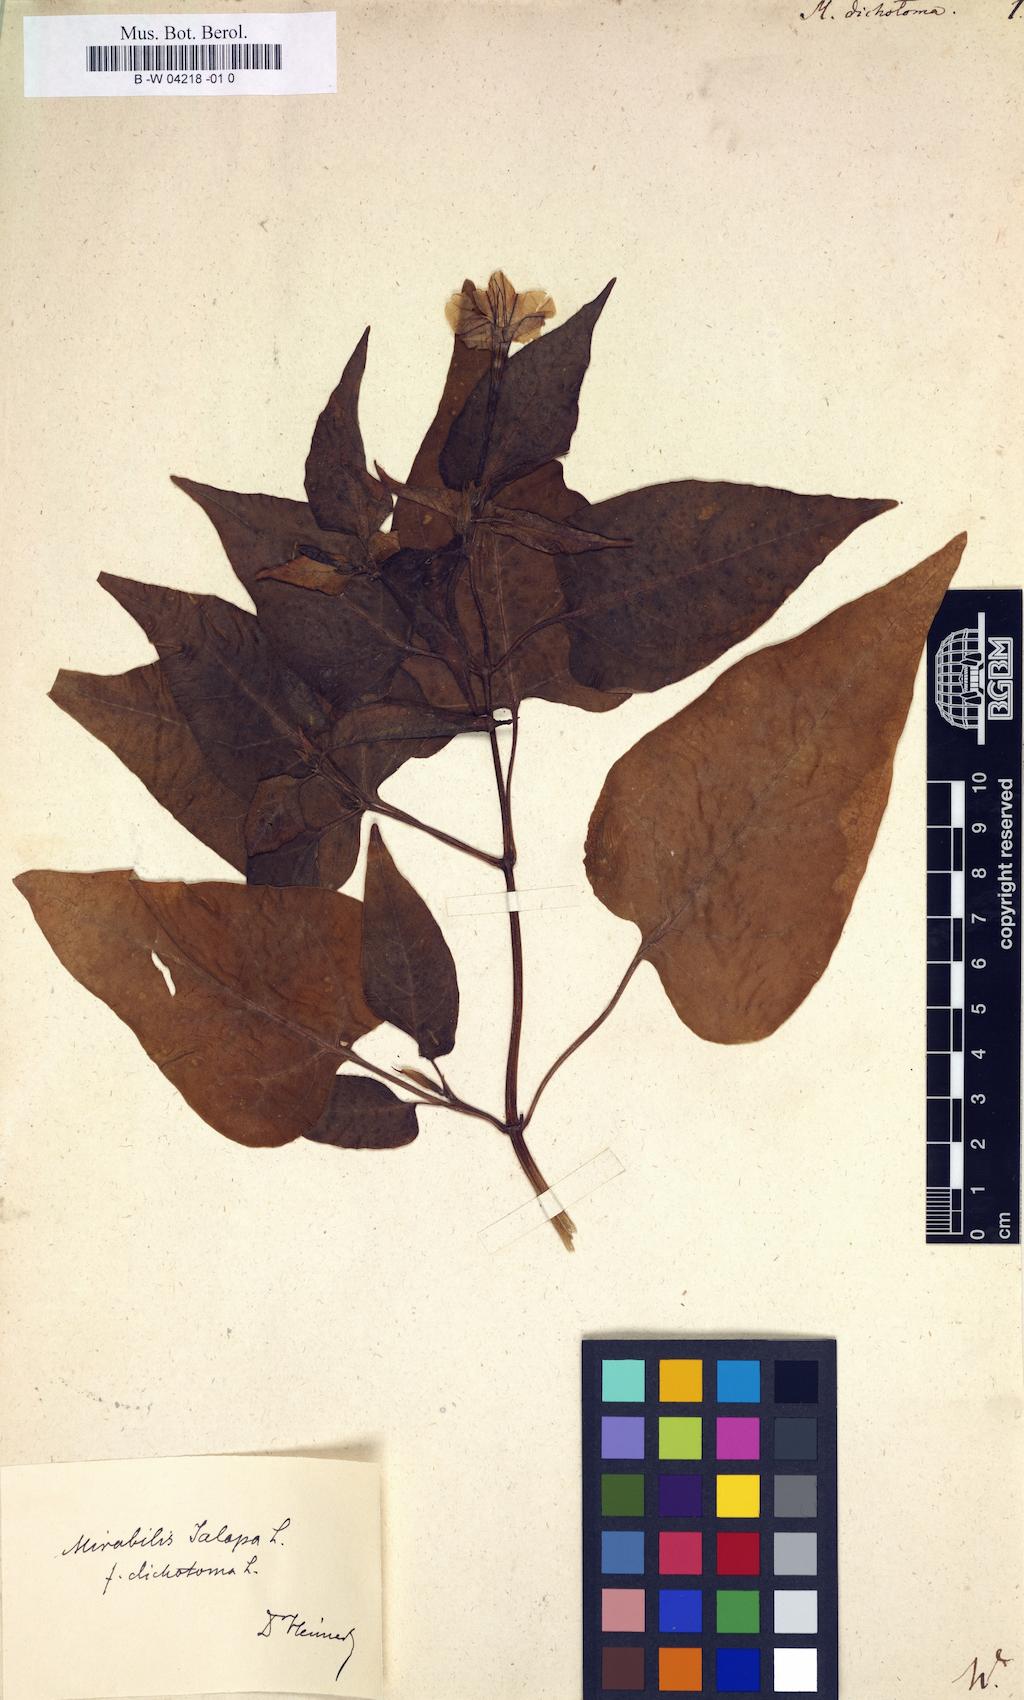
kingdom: Plantae
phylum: Tracheophyta
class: Magnoliopsida
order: Caryophyllales
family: Nyctaginaceae
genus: Mirabilis
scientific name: Mirabilis jalapa
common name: Marvel-of-peru
